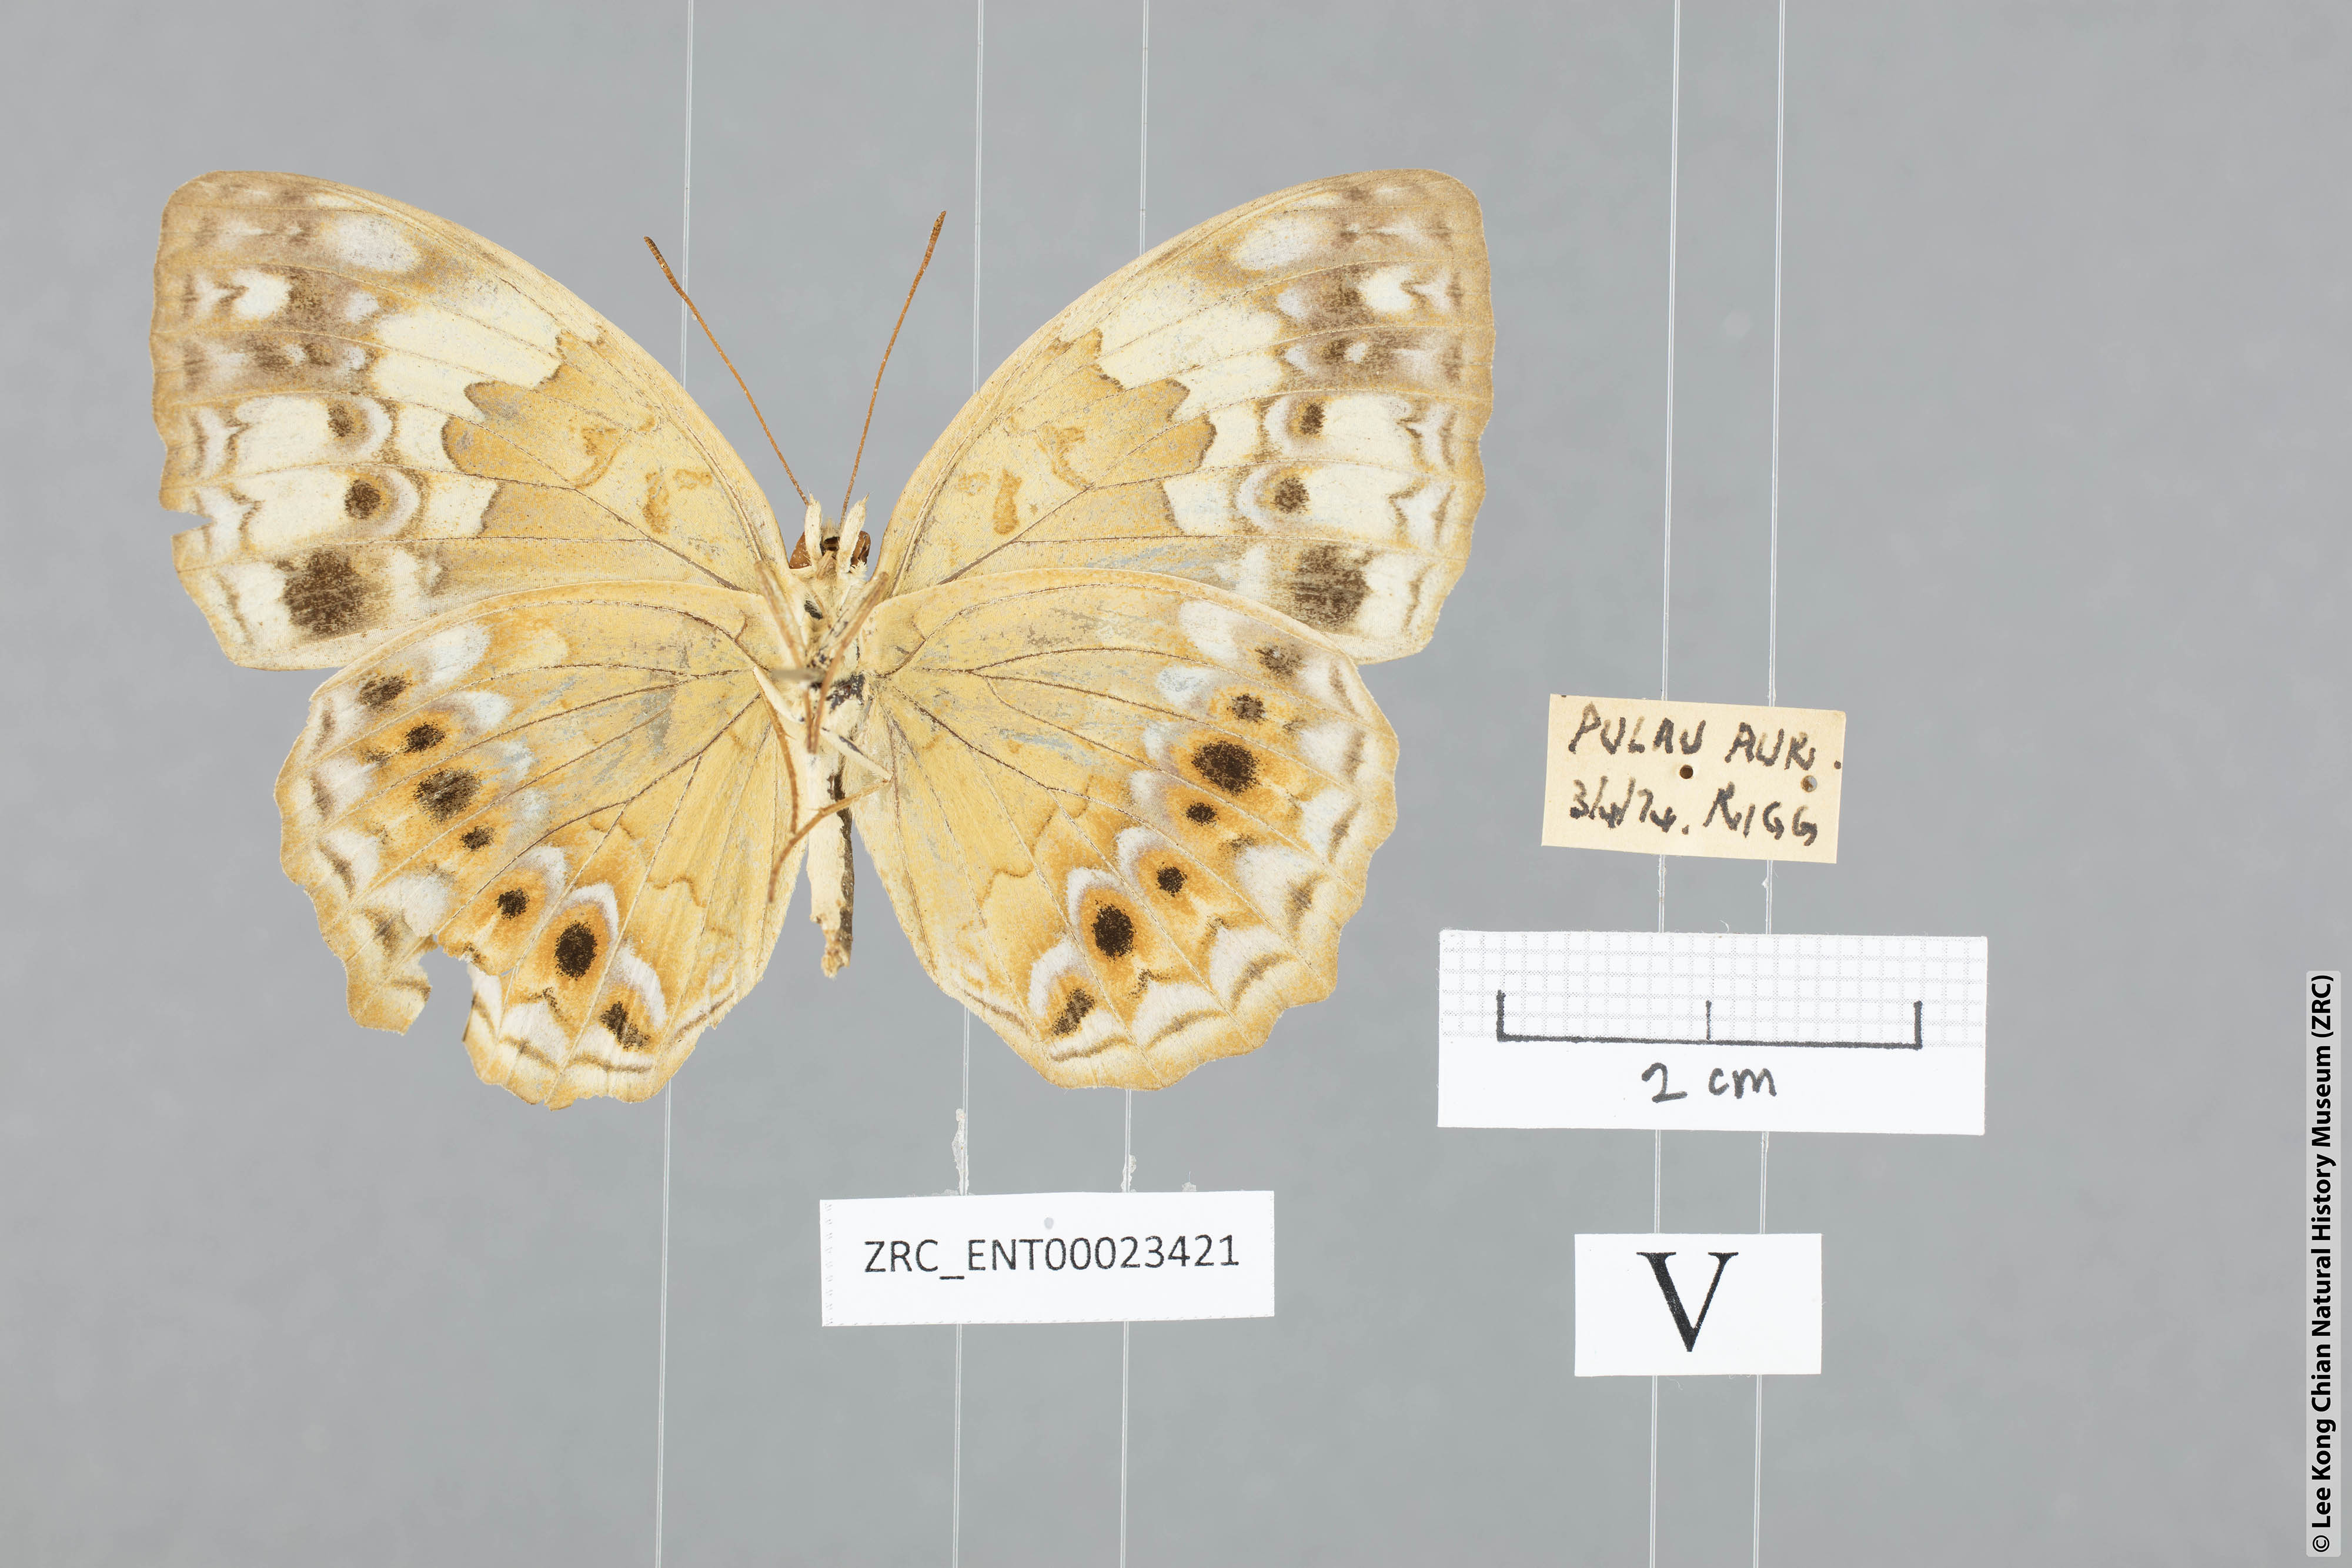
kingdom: Animalia
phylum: Arthropoda
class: Insecta
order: Lepidoptera
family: Nymphalidae
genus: Cupha
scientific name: Cupha erymanthis
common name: Rustic
